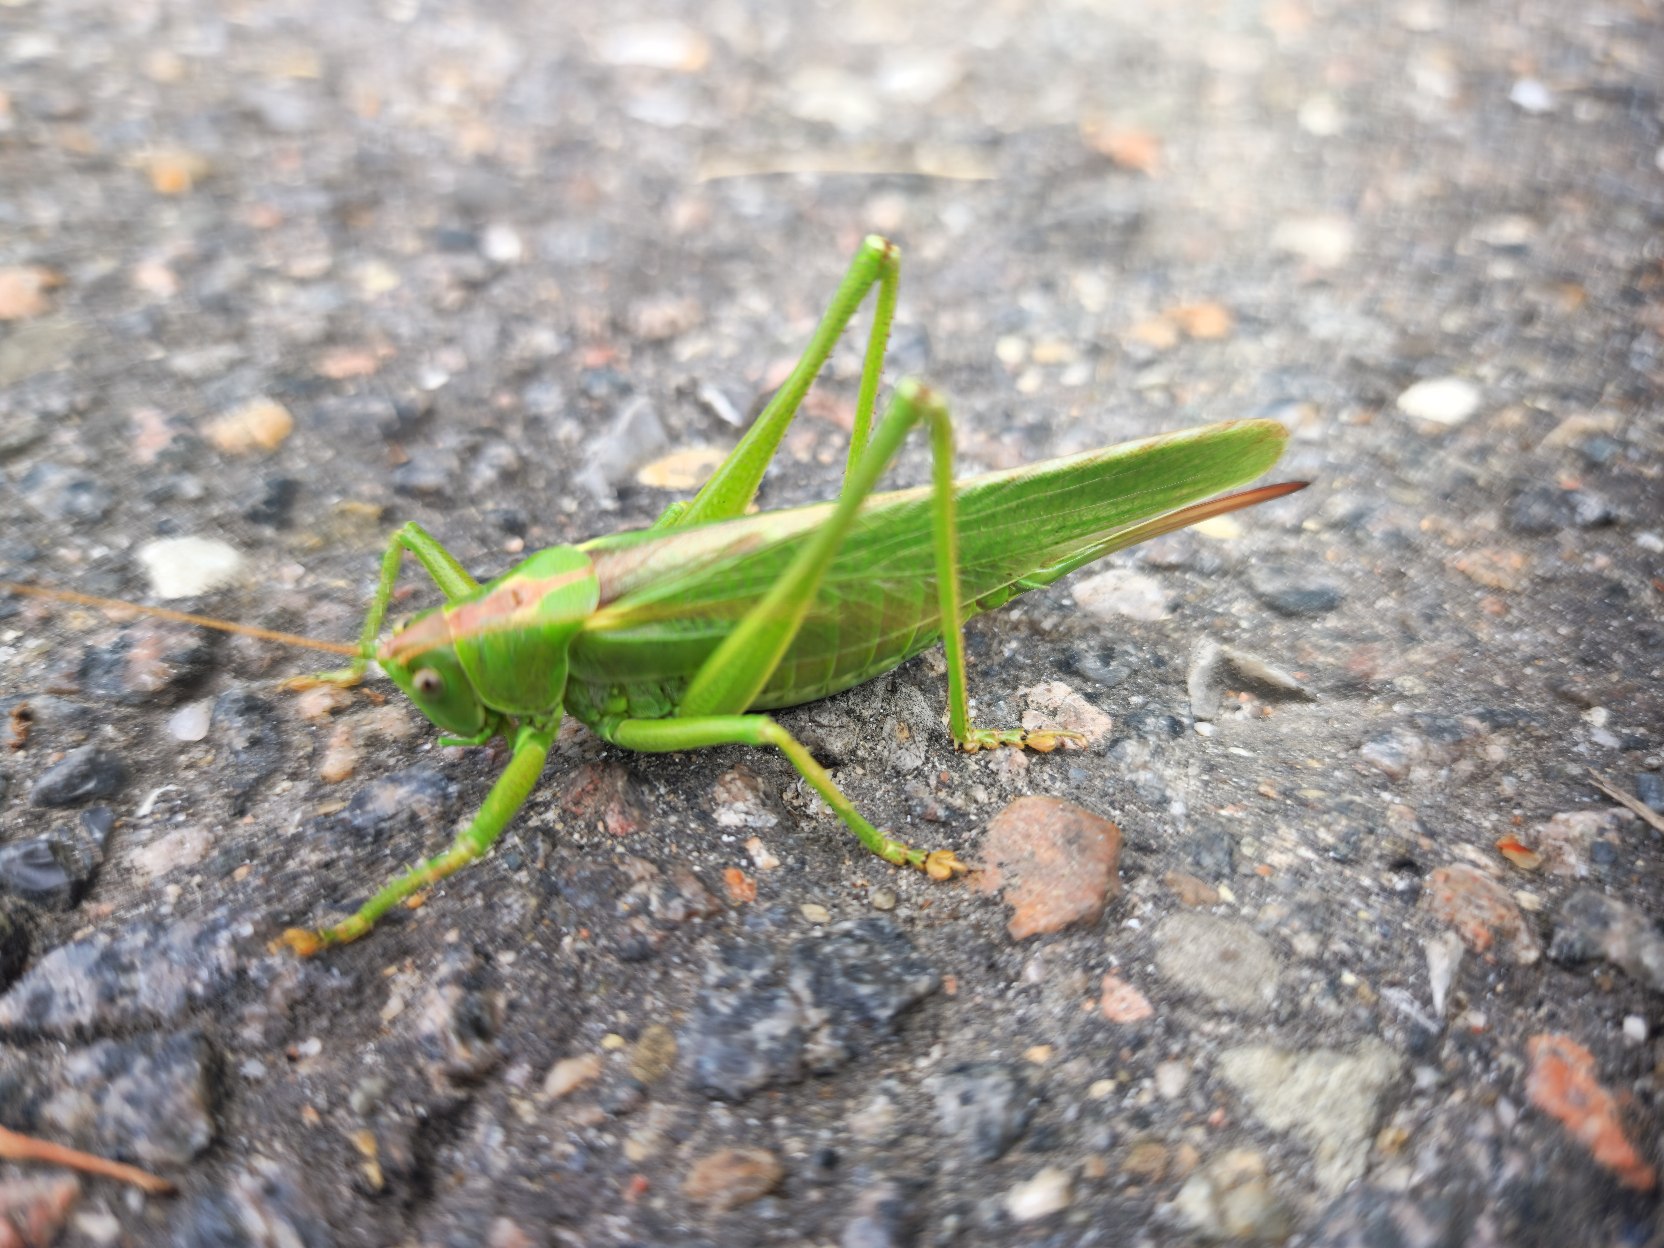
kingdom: Animalia
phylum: Arthropoda
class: Insecta
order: Orthoptera
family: Tettigoniidae
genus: Tettigonia
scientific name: Tettigonia viridissima
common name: Stor grøn løvgræshoppe
